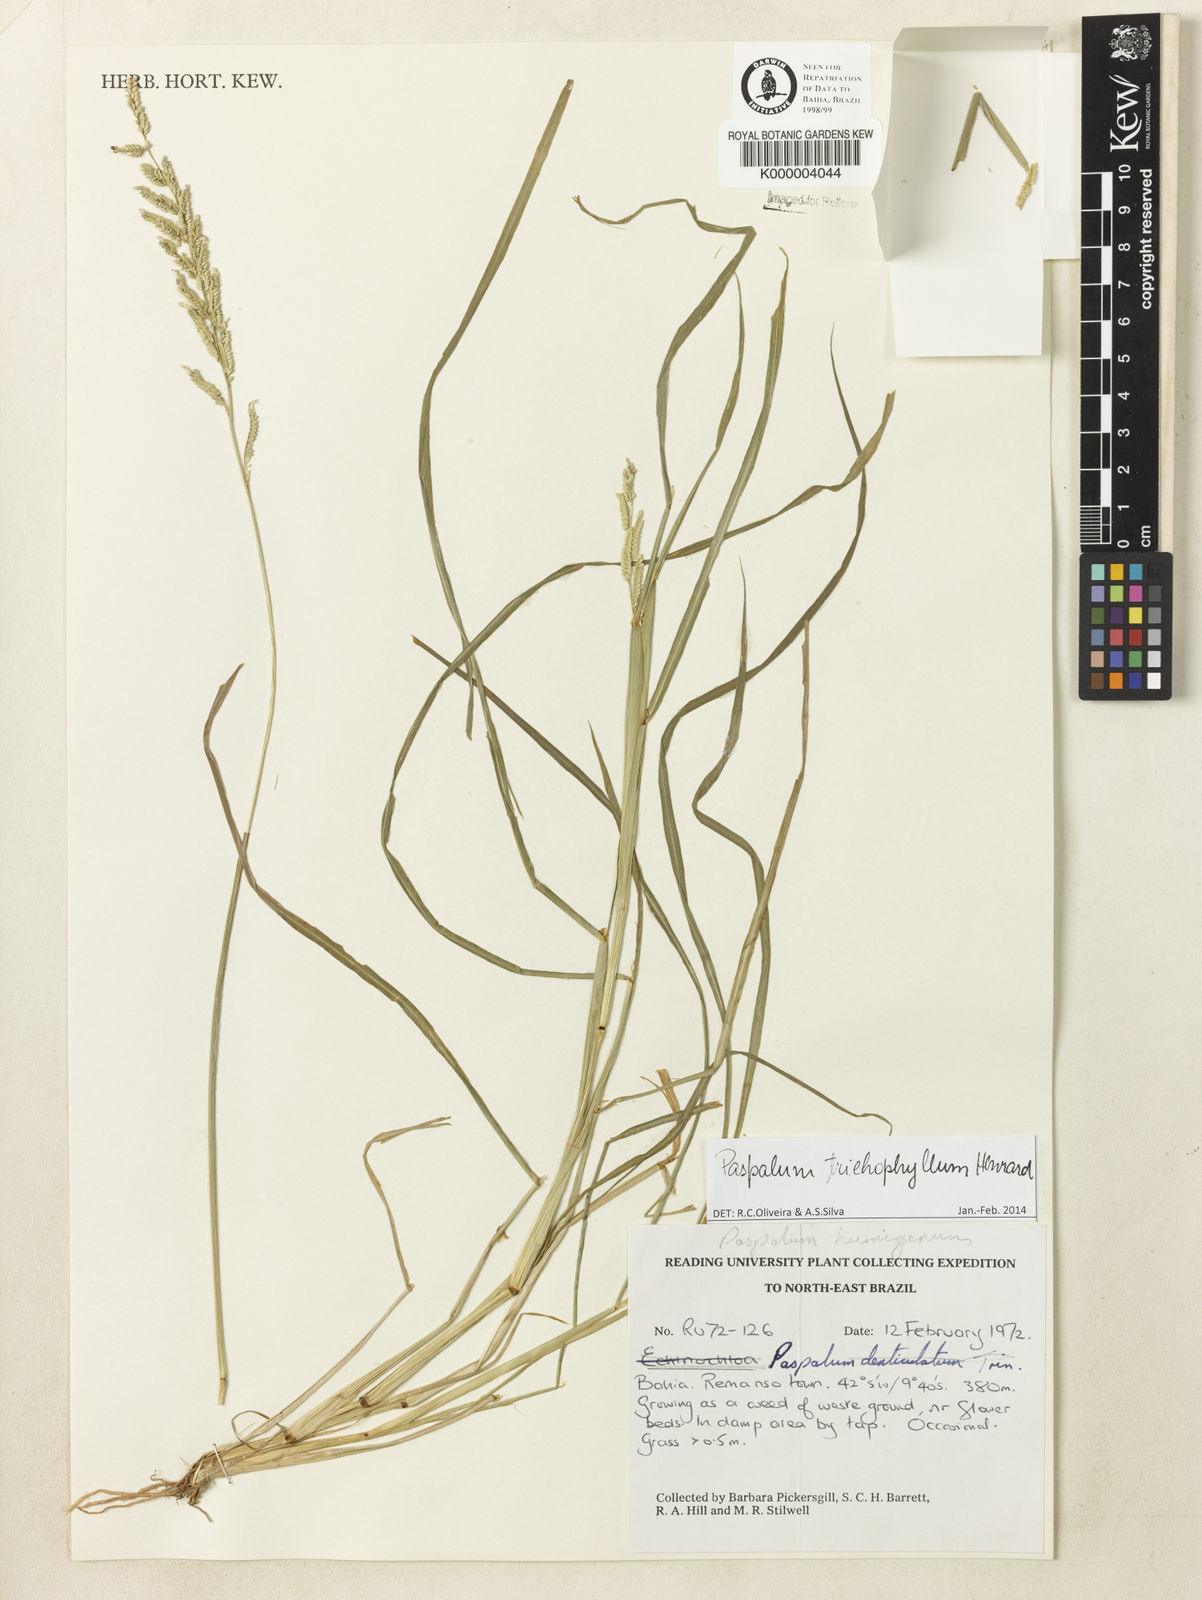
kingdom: Plantae
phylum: Tracheophyta
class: Liliopsida
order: Poales
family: Poaceae
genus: Paspalum
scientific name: Paspalum trichophyllum
